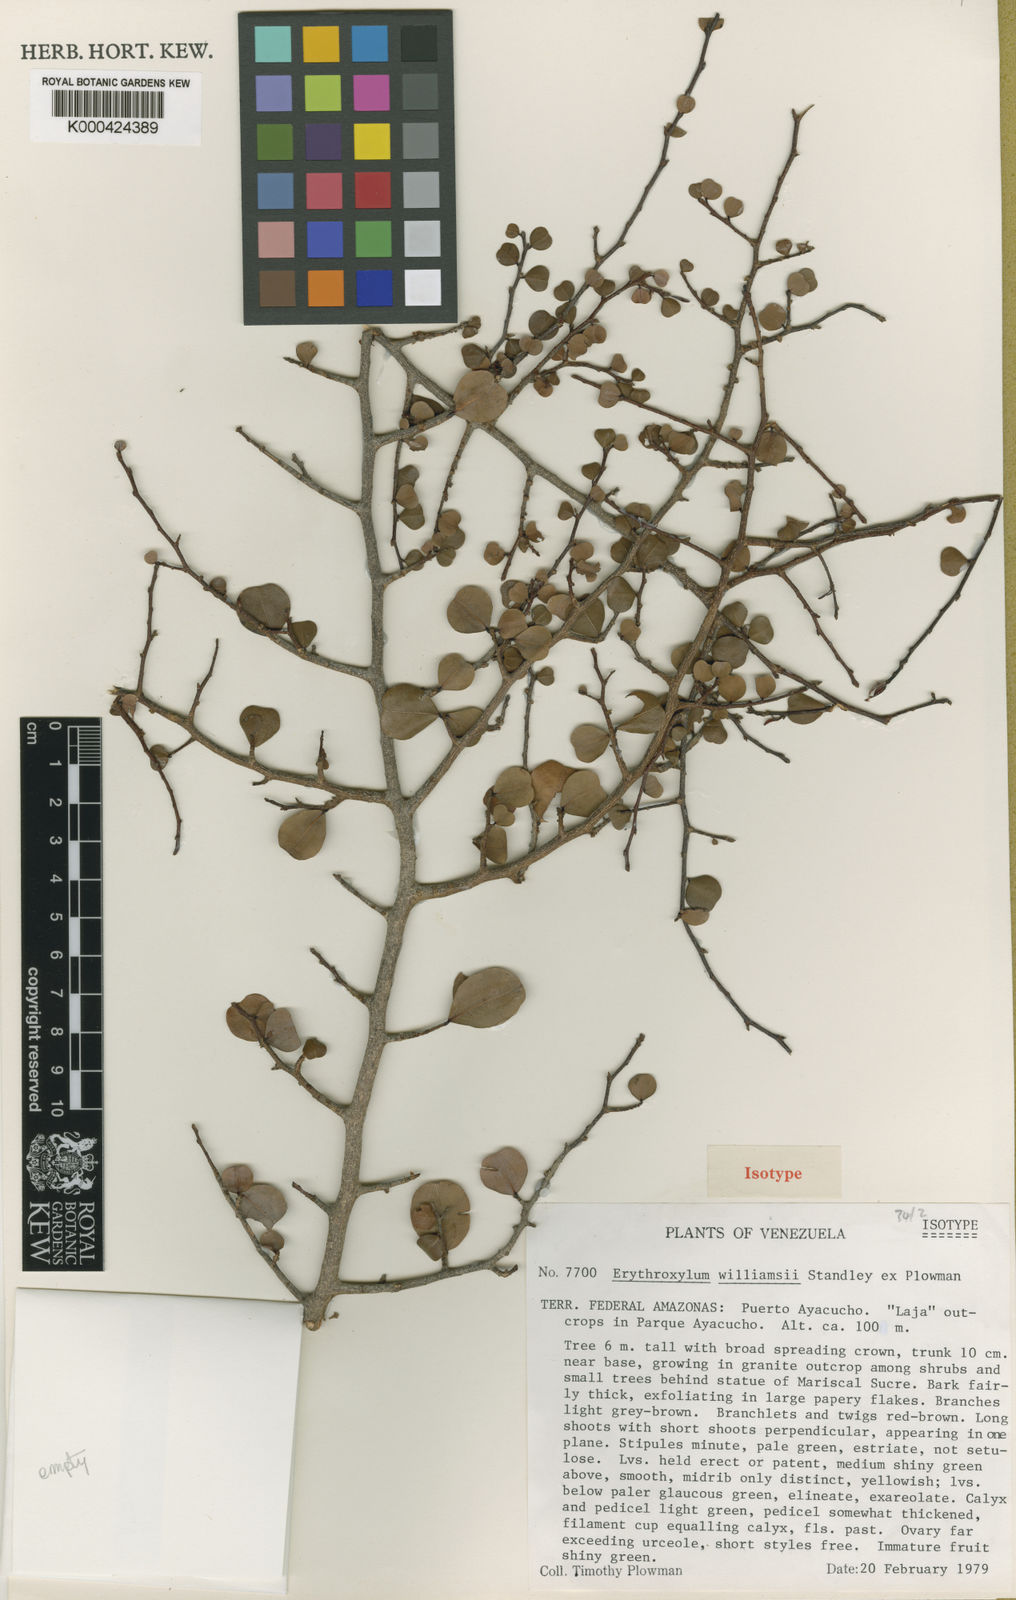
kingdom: Plantae
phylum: Tracheophyta
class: Magnoliopsida
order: Malpighiales
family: Erythroxylaceae
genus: Erythroxylum
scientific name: Erythroxylum williamsii
